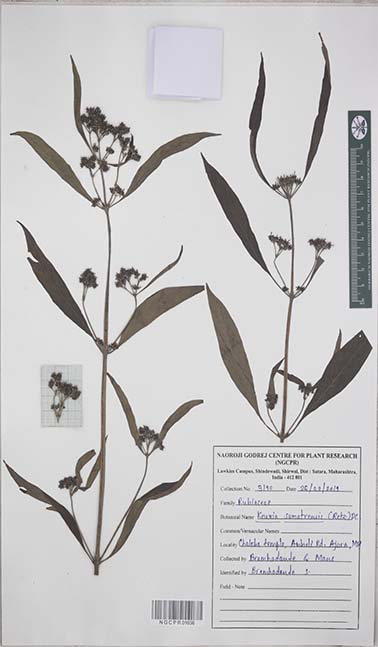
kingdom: Plantae
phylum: Tracheophyta
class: Magnoliopsida
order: Gentianales
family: Rubiaceae
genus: Knoxia
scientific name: Knoxia sumatrensis
